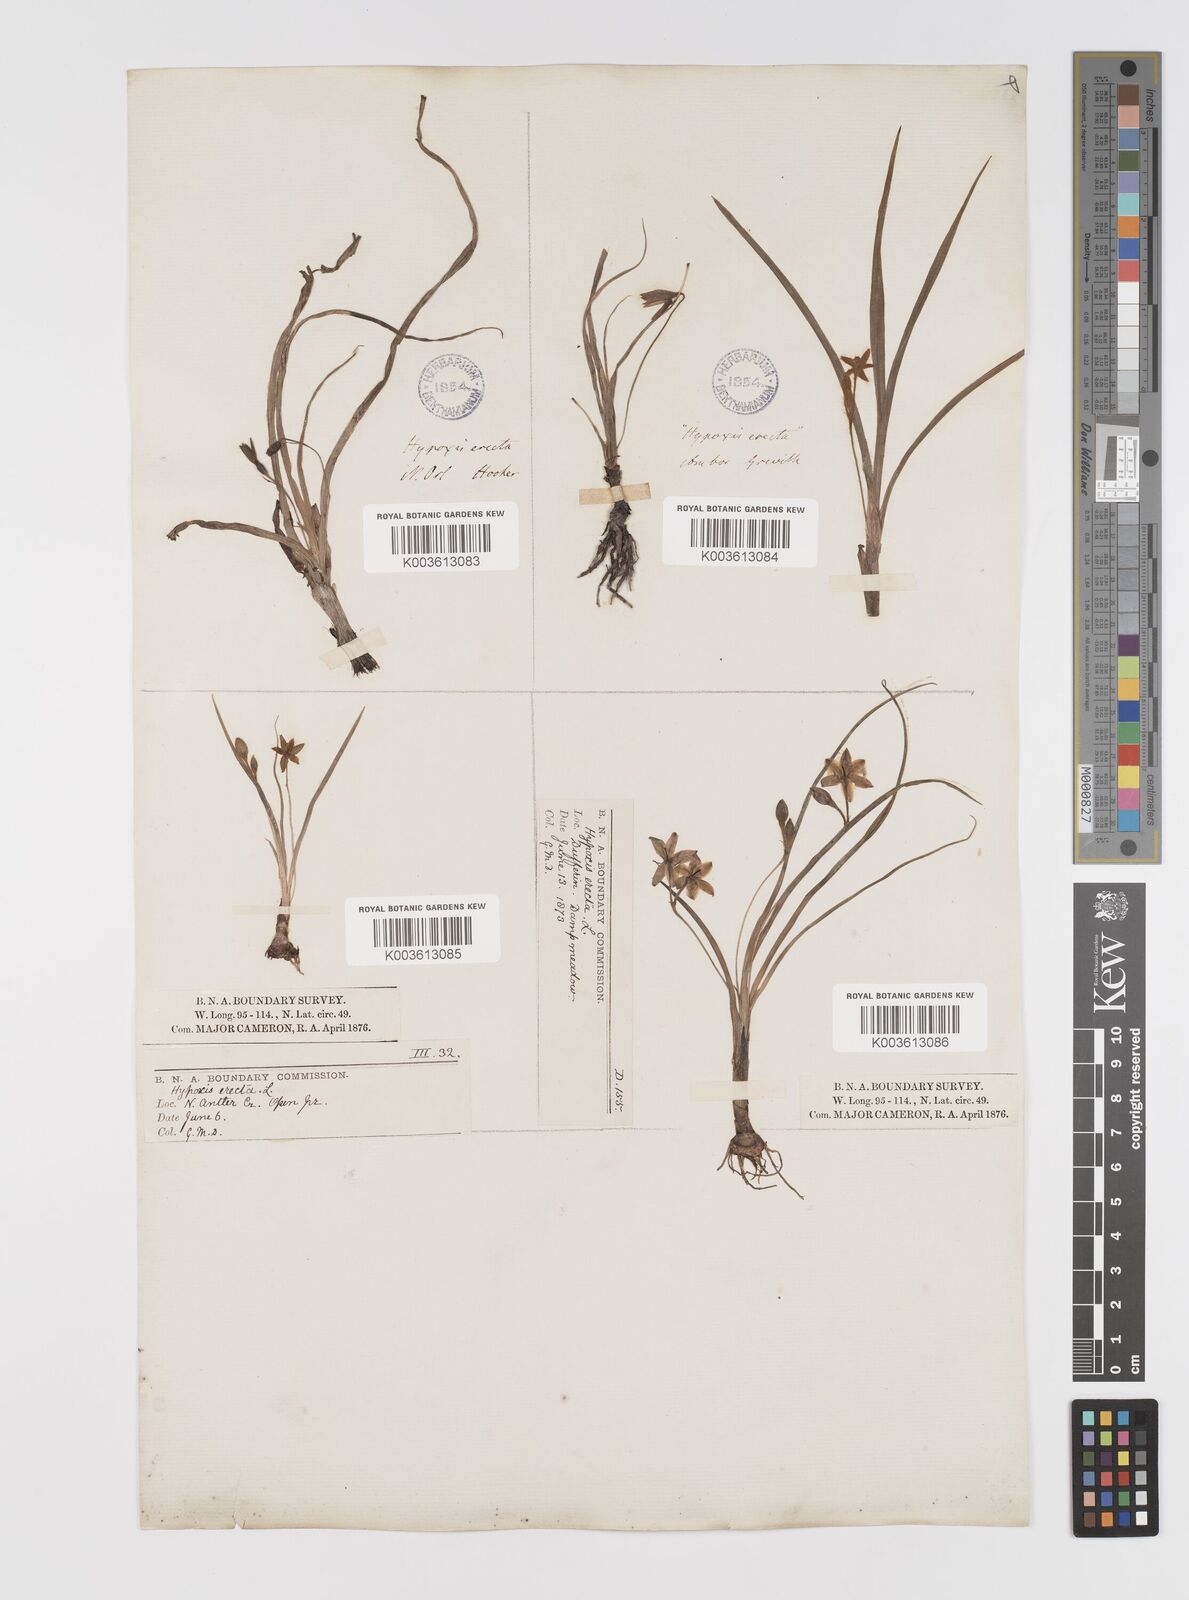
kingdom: Plantae
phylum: Tracheophyta
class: Liliopsida
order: Asparagales
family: Hypoxidaceae
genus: Hypoxis
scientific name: Hypoxis hirsuta
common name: Common goldstar
